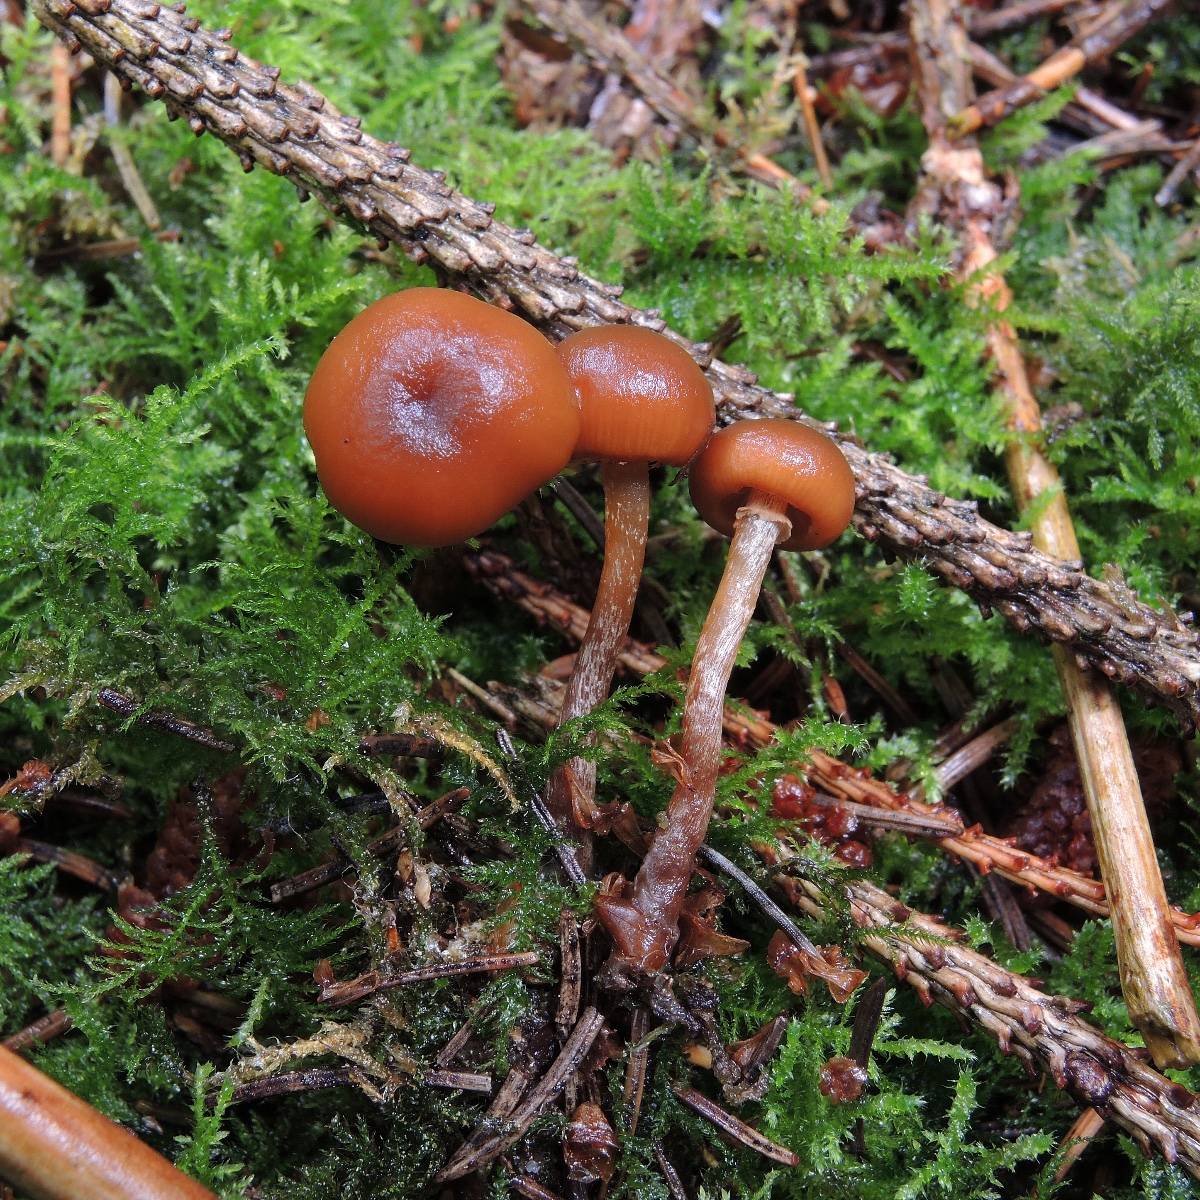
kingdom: Fungi
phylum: Basidiomycota
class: Agaricomycetes
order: Agaricales
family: Hymenogastraceae
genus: Galerina
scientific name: Galerina marginata
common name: randbæltet hjelmhat
